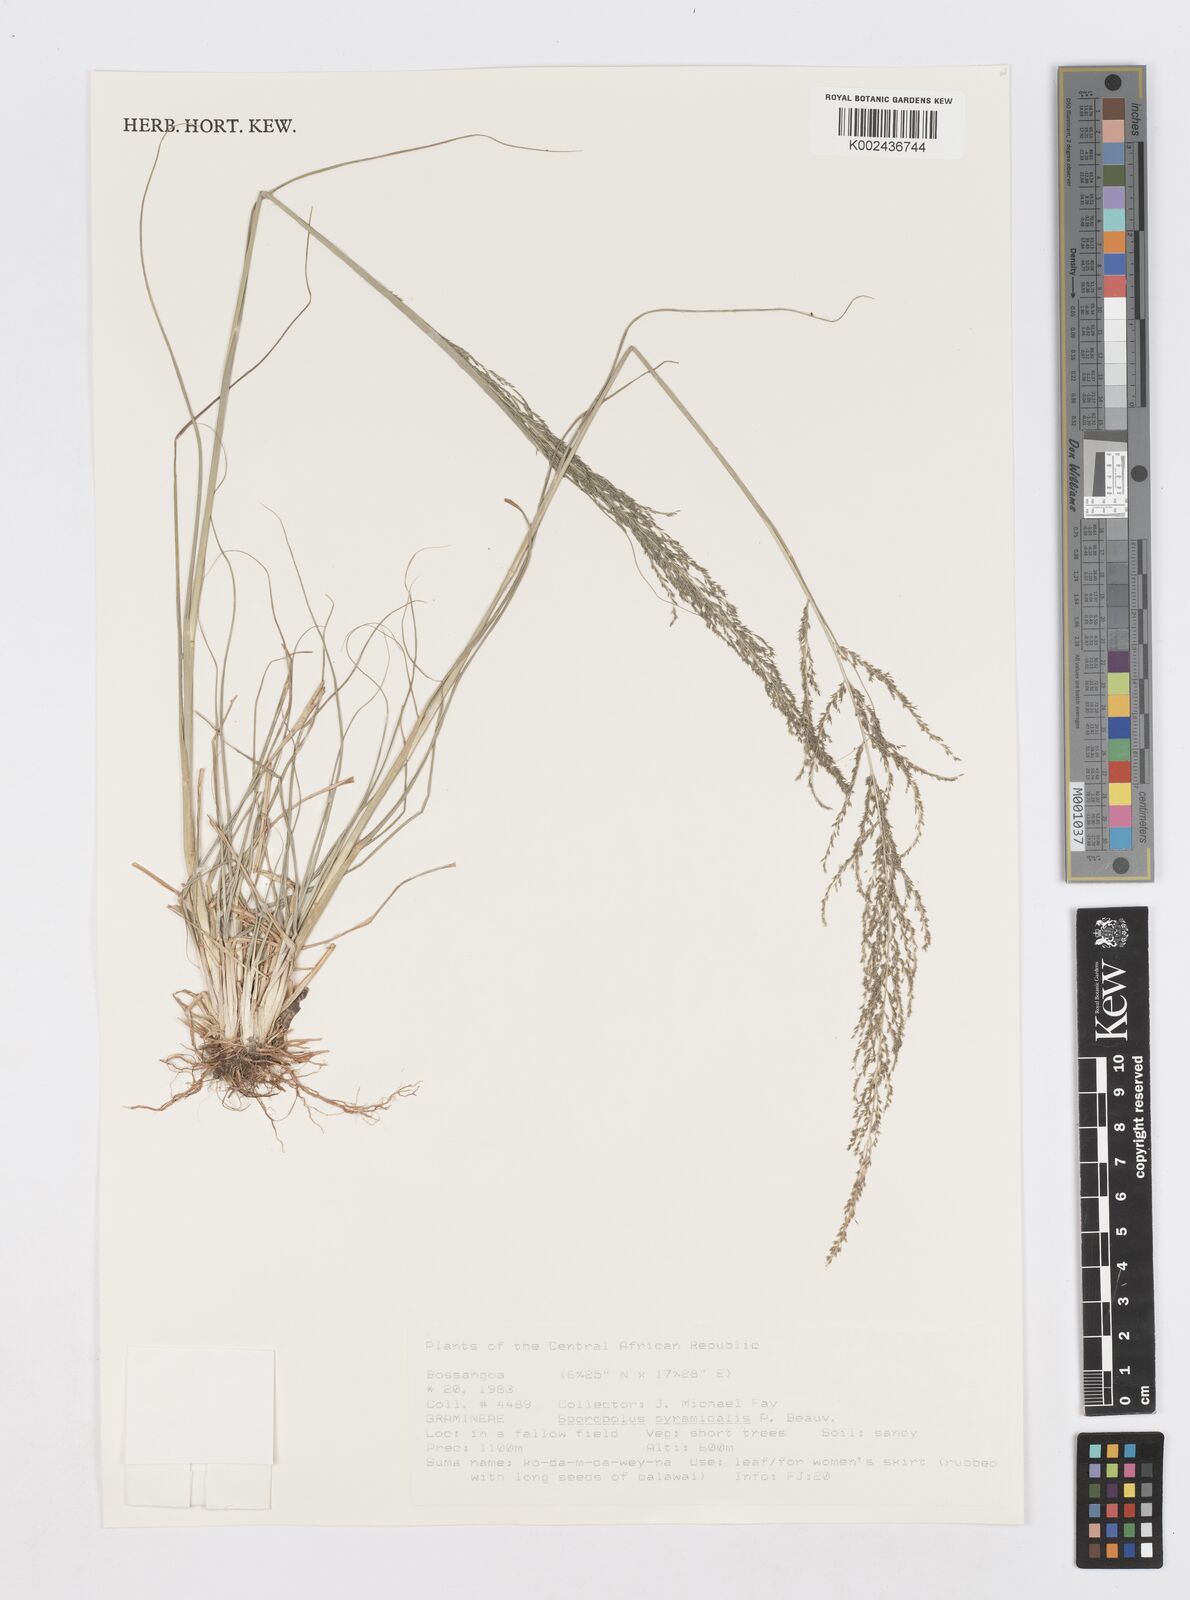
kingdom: Plantae
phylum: Tracheophyta
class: Liliopsida
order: Poales
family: Poaceae
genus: Sporobolus
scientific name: Sporobolus pyramidalis
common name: West indian dropseed
